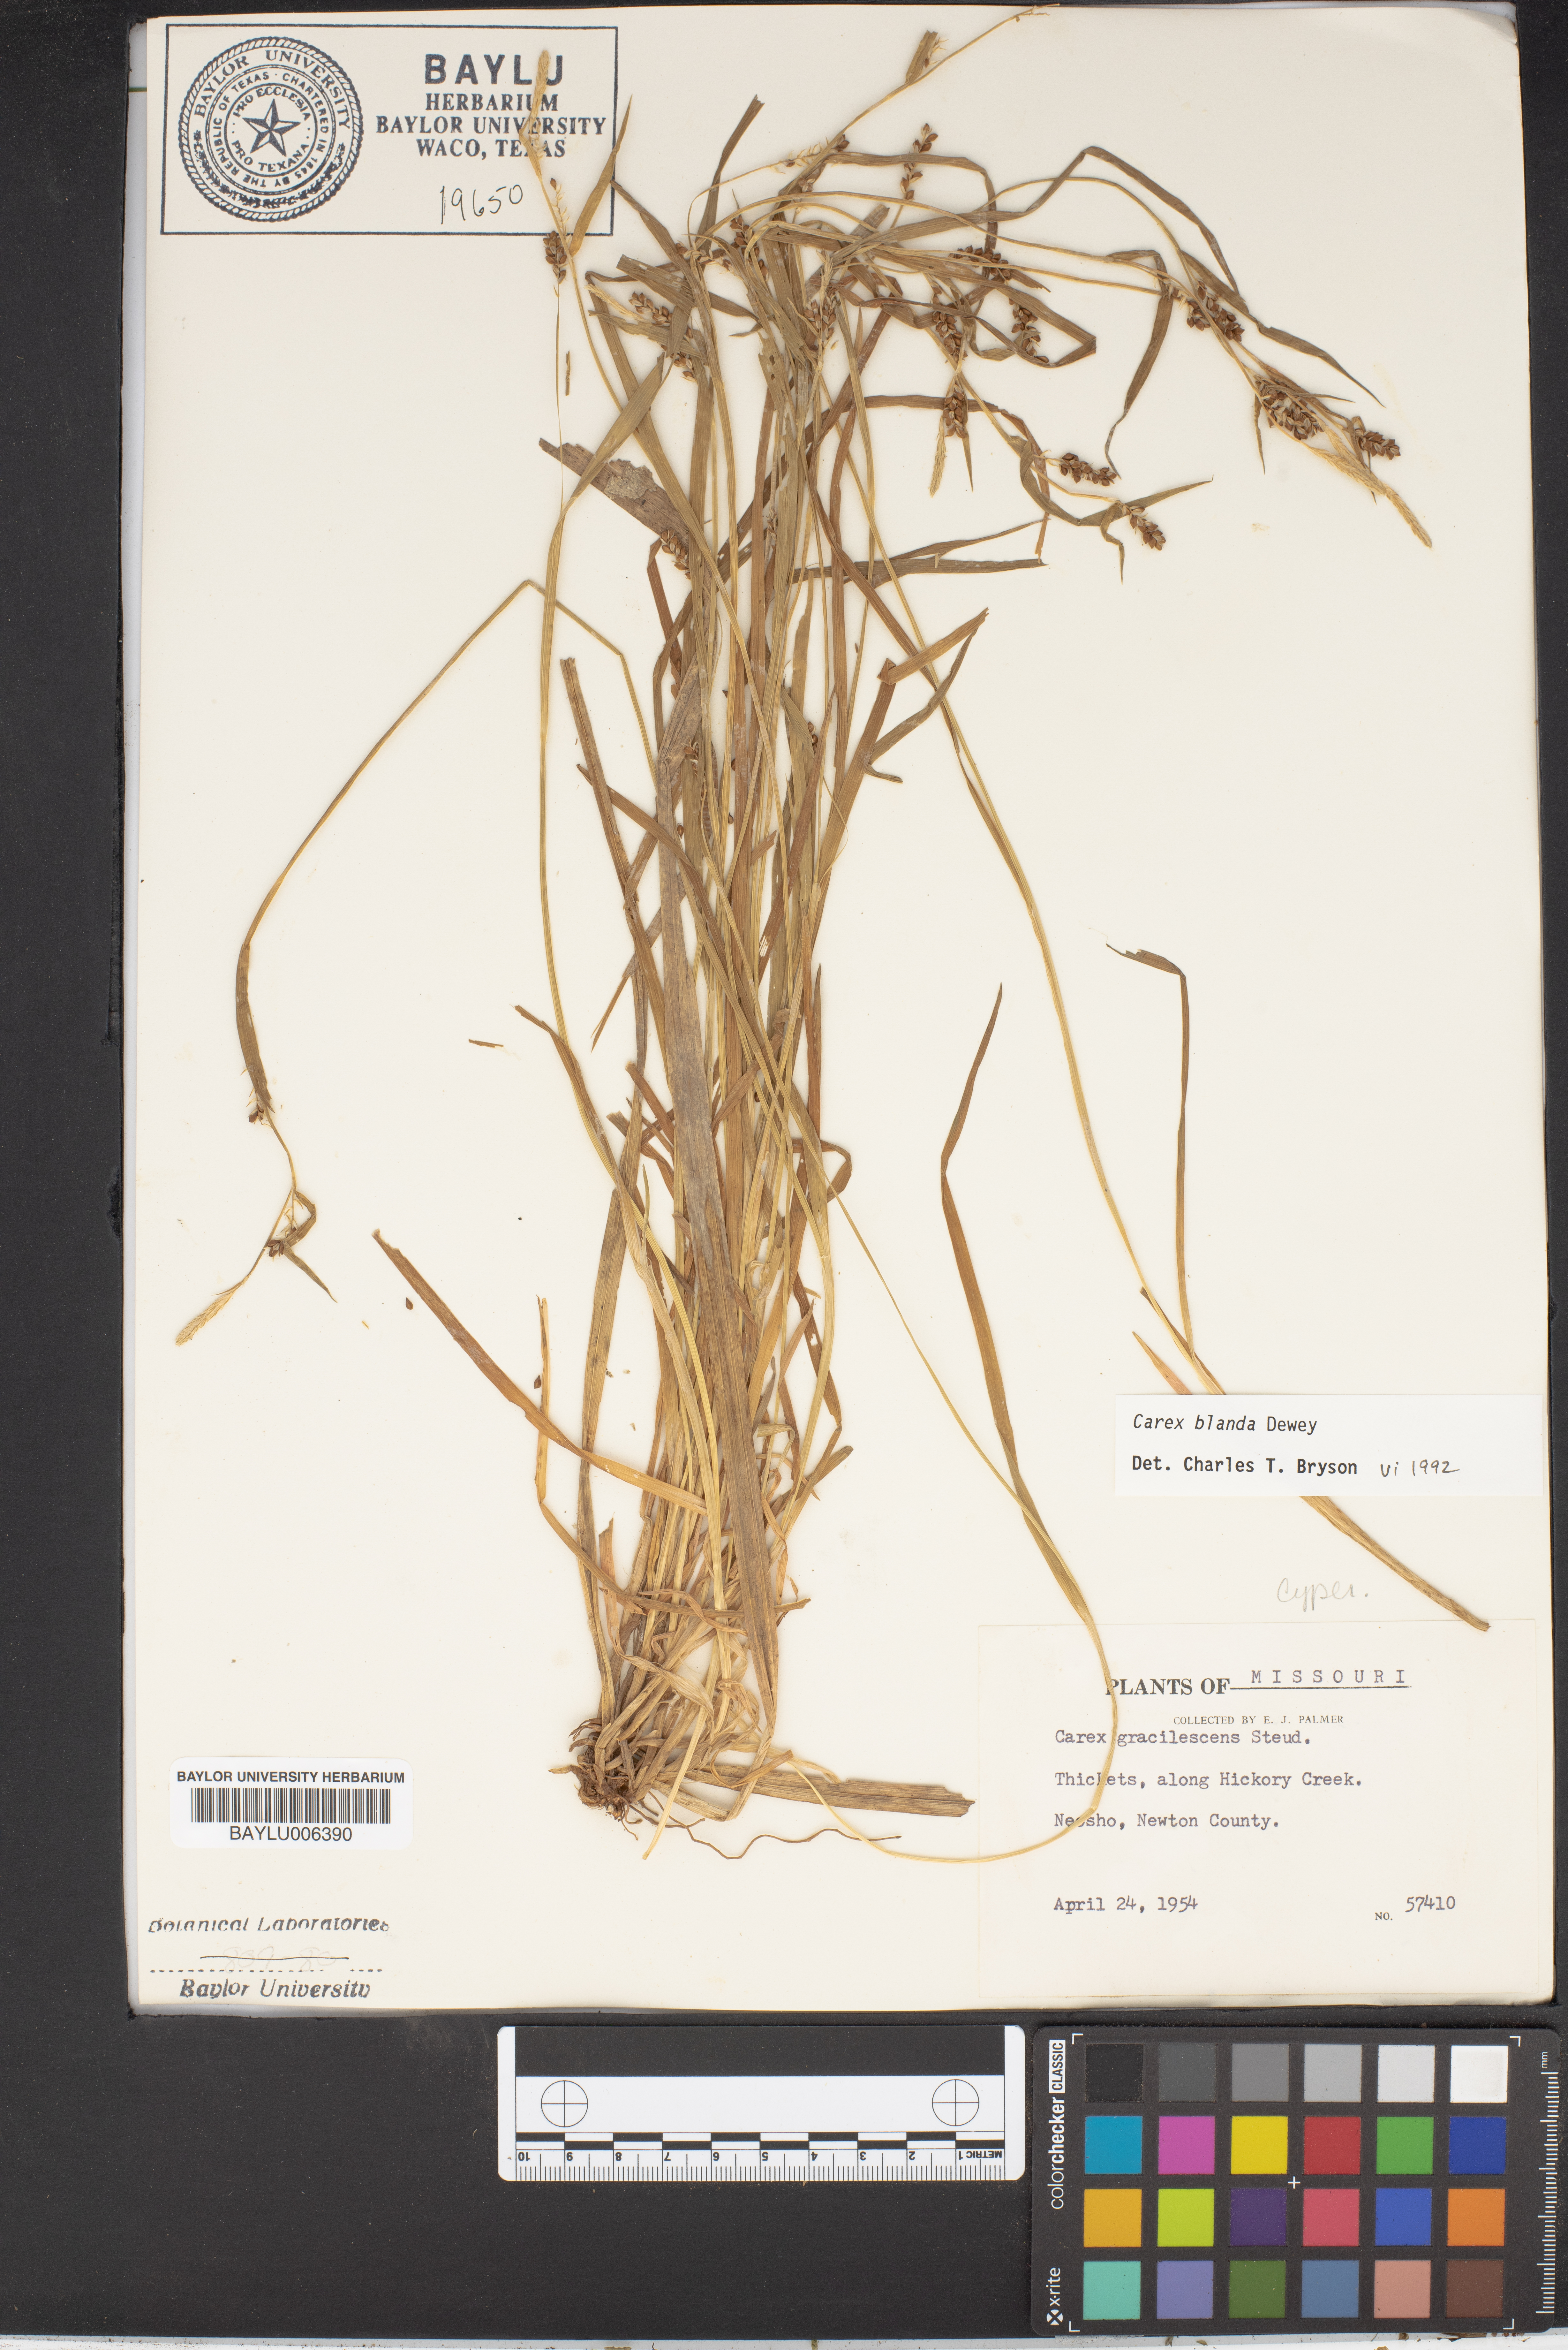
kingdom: Plantae
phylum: Tracheophyta
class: Liliopsida
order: Poales
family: Cyperaceae
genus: Carex
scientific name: Carex laxiflora
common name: Beech wood sedge
